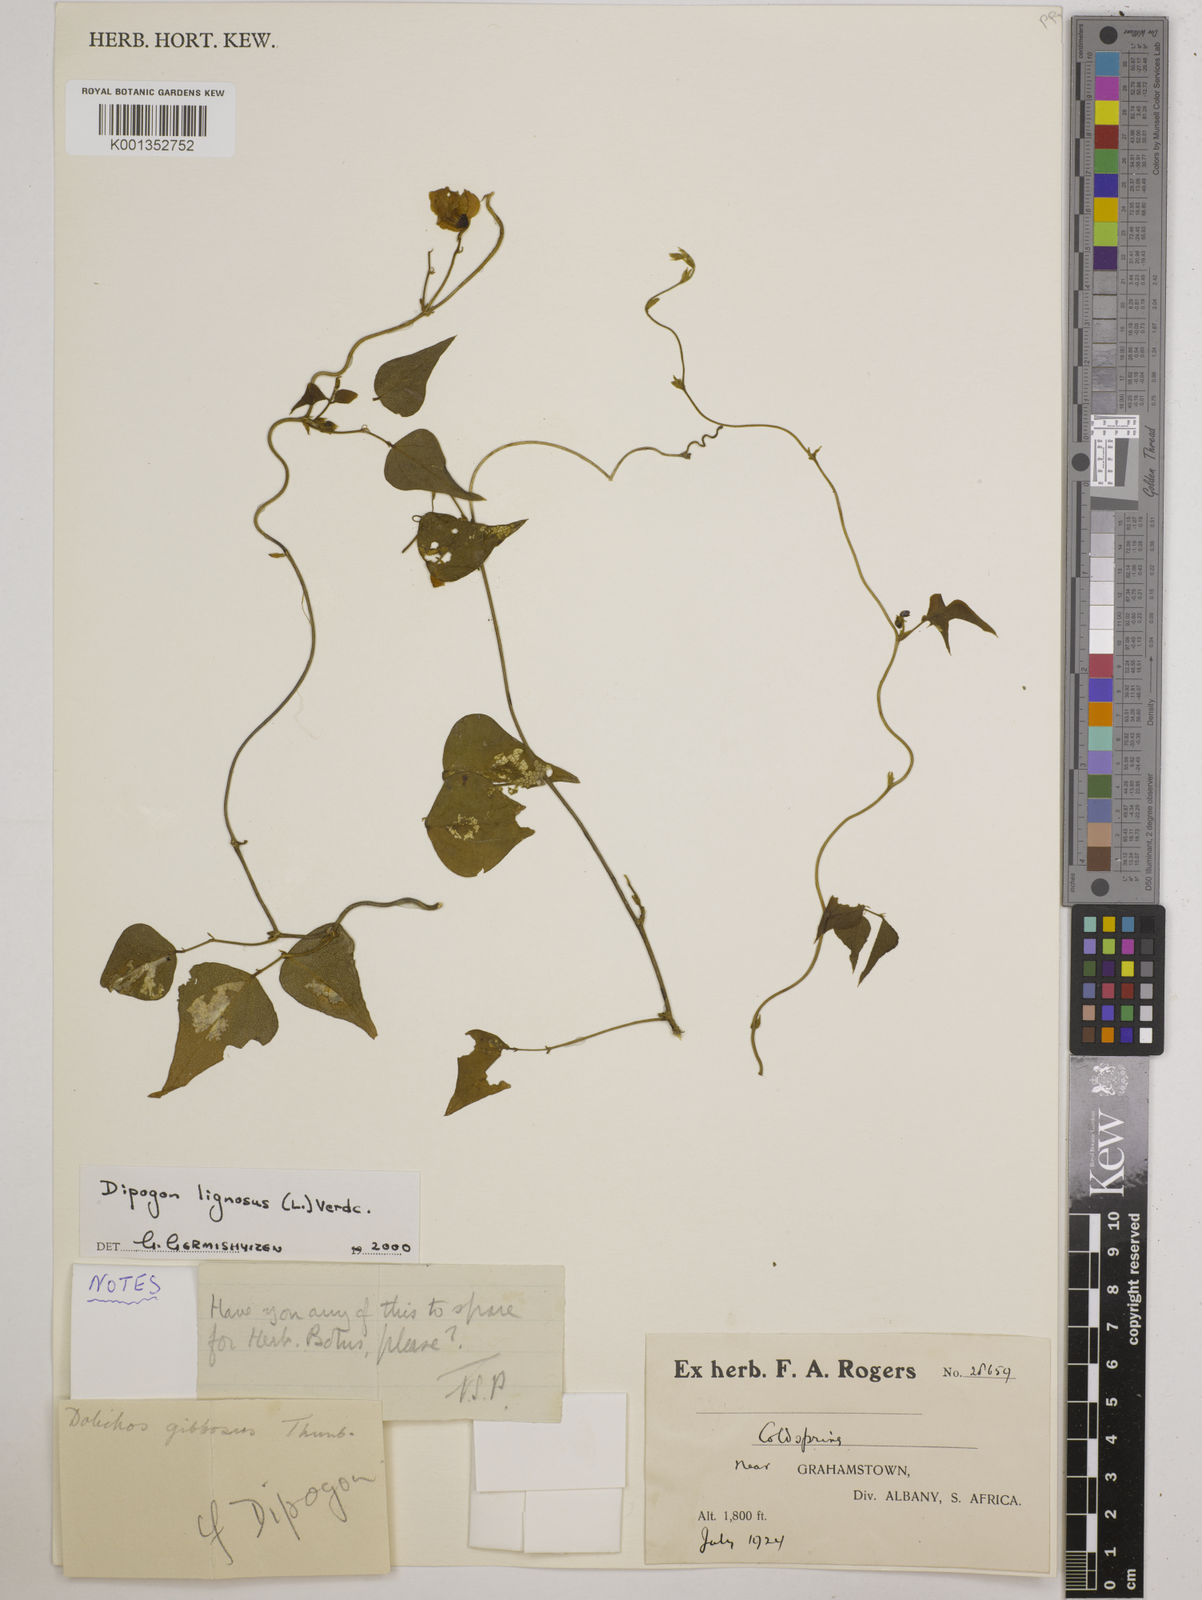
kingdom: Plantae
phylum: Tracheophyta
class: Magnoliopsida
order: Fabales
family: Fabaceae
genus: Dipogon
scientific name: Dipogon lignosus
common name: Okie bean
